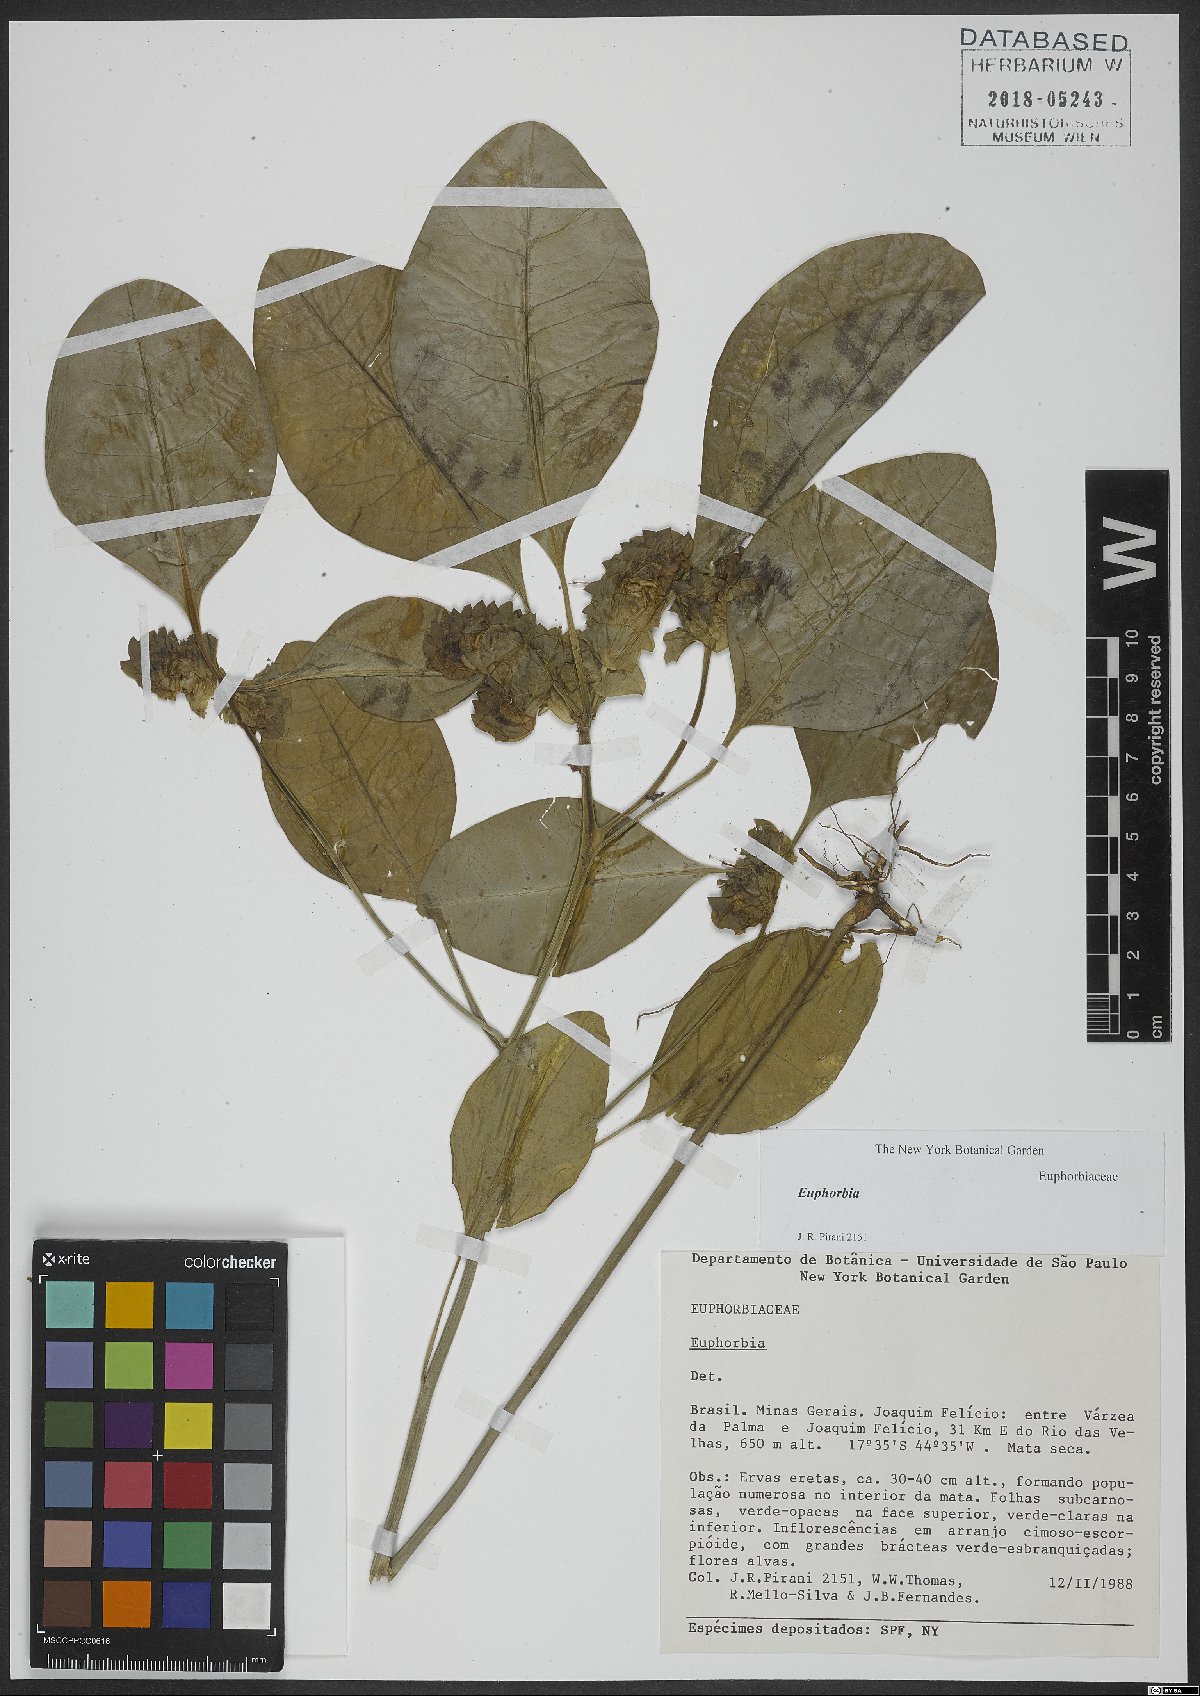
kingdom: Plantae
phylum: Tracheophyta
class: Magnoliopsida
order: Malpighiales
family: Euphorbiaceae
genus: Euphorbia
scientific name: Euphorbia
